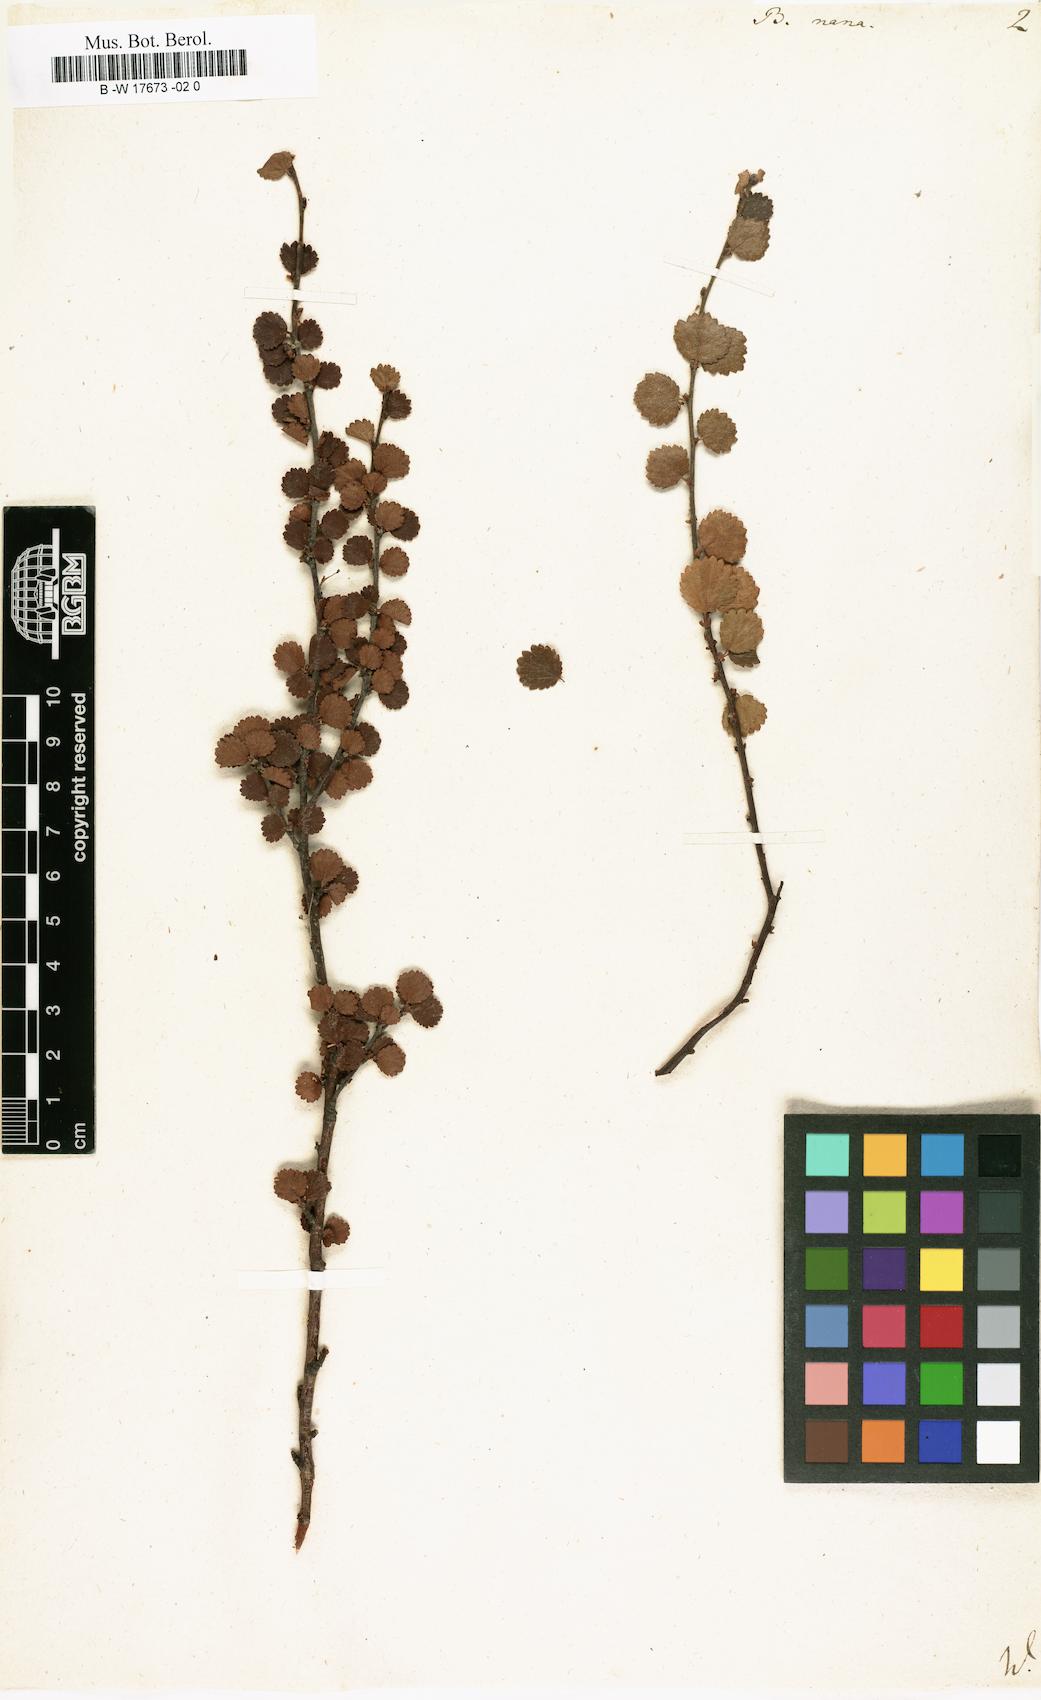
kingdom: Plantae
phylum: Tracheophyta
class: Magnoliopsida
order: Fagales
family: Betulaceae
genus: Betula
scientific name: Betula nana
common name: Arctic dwarf birch
